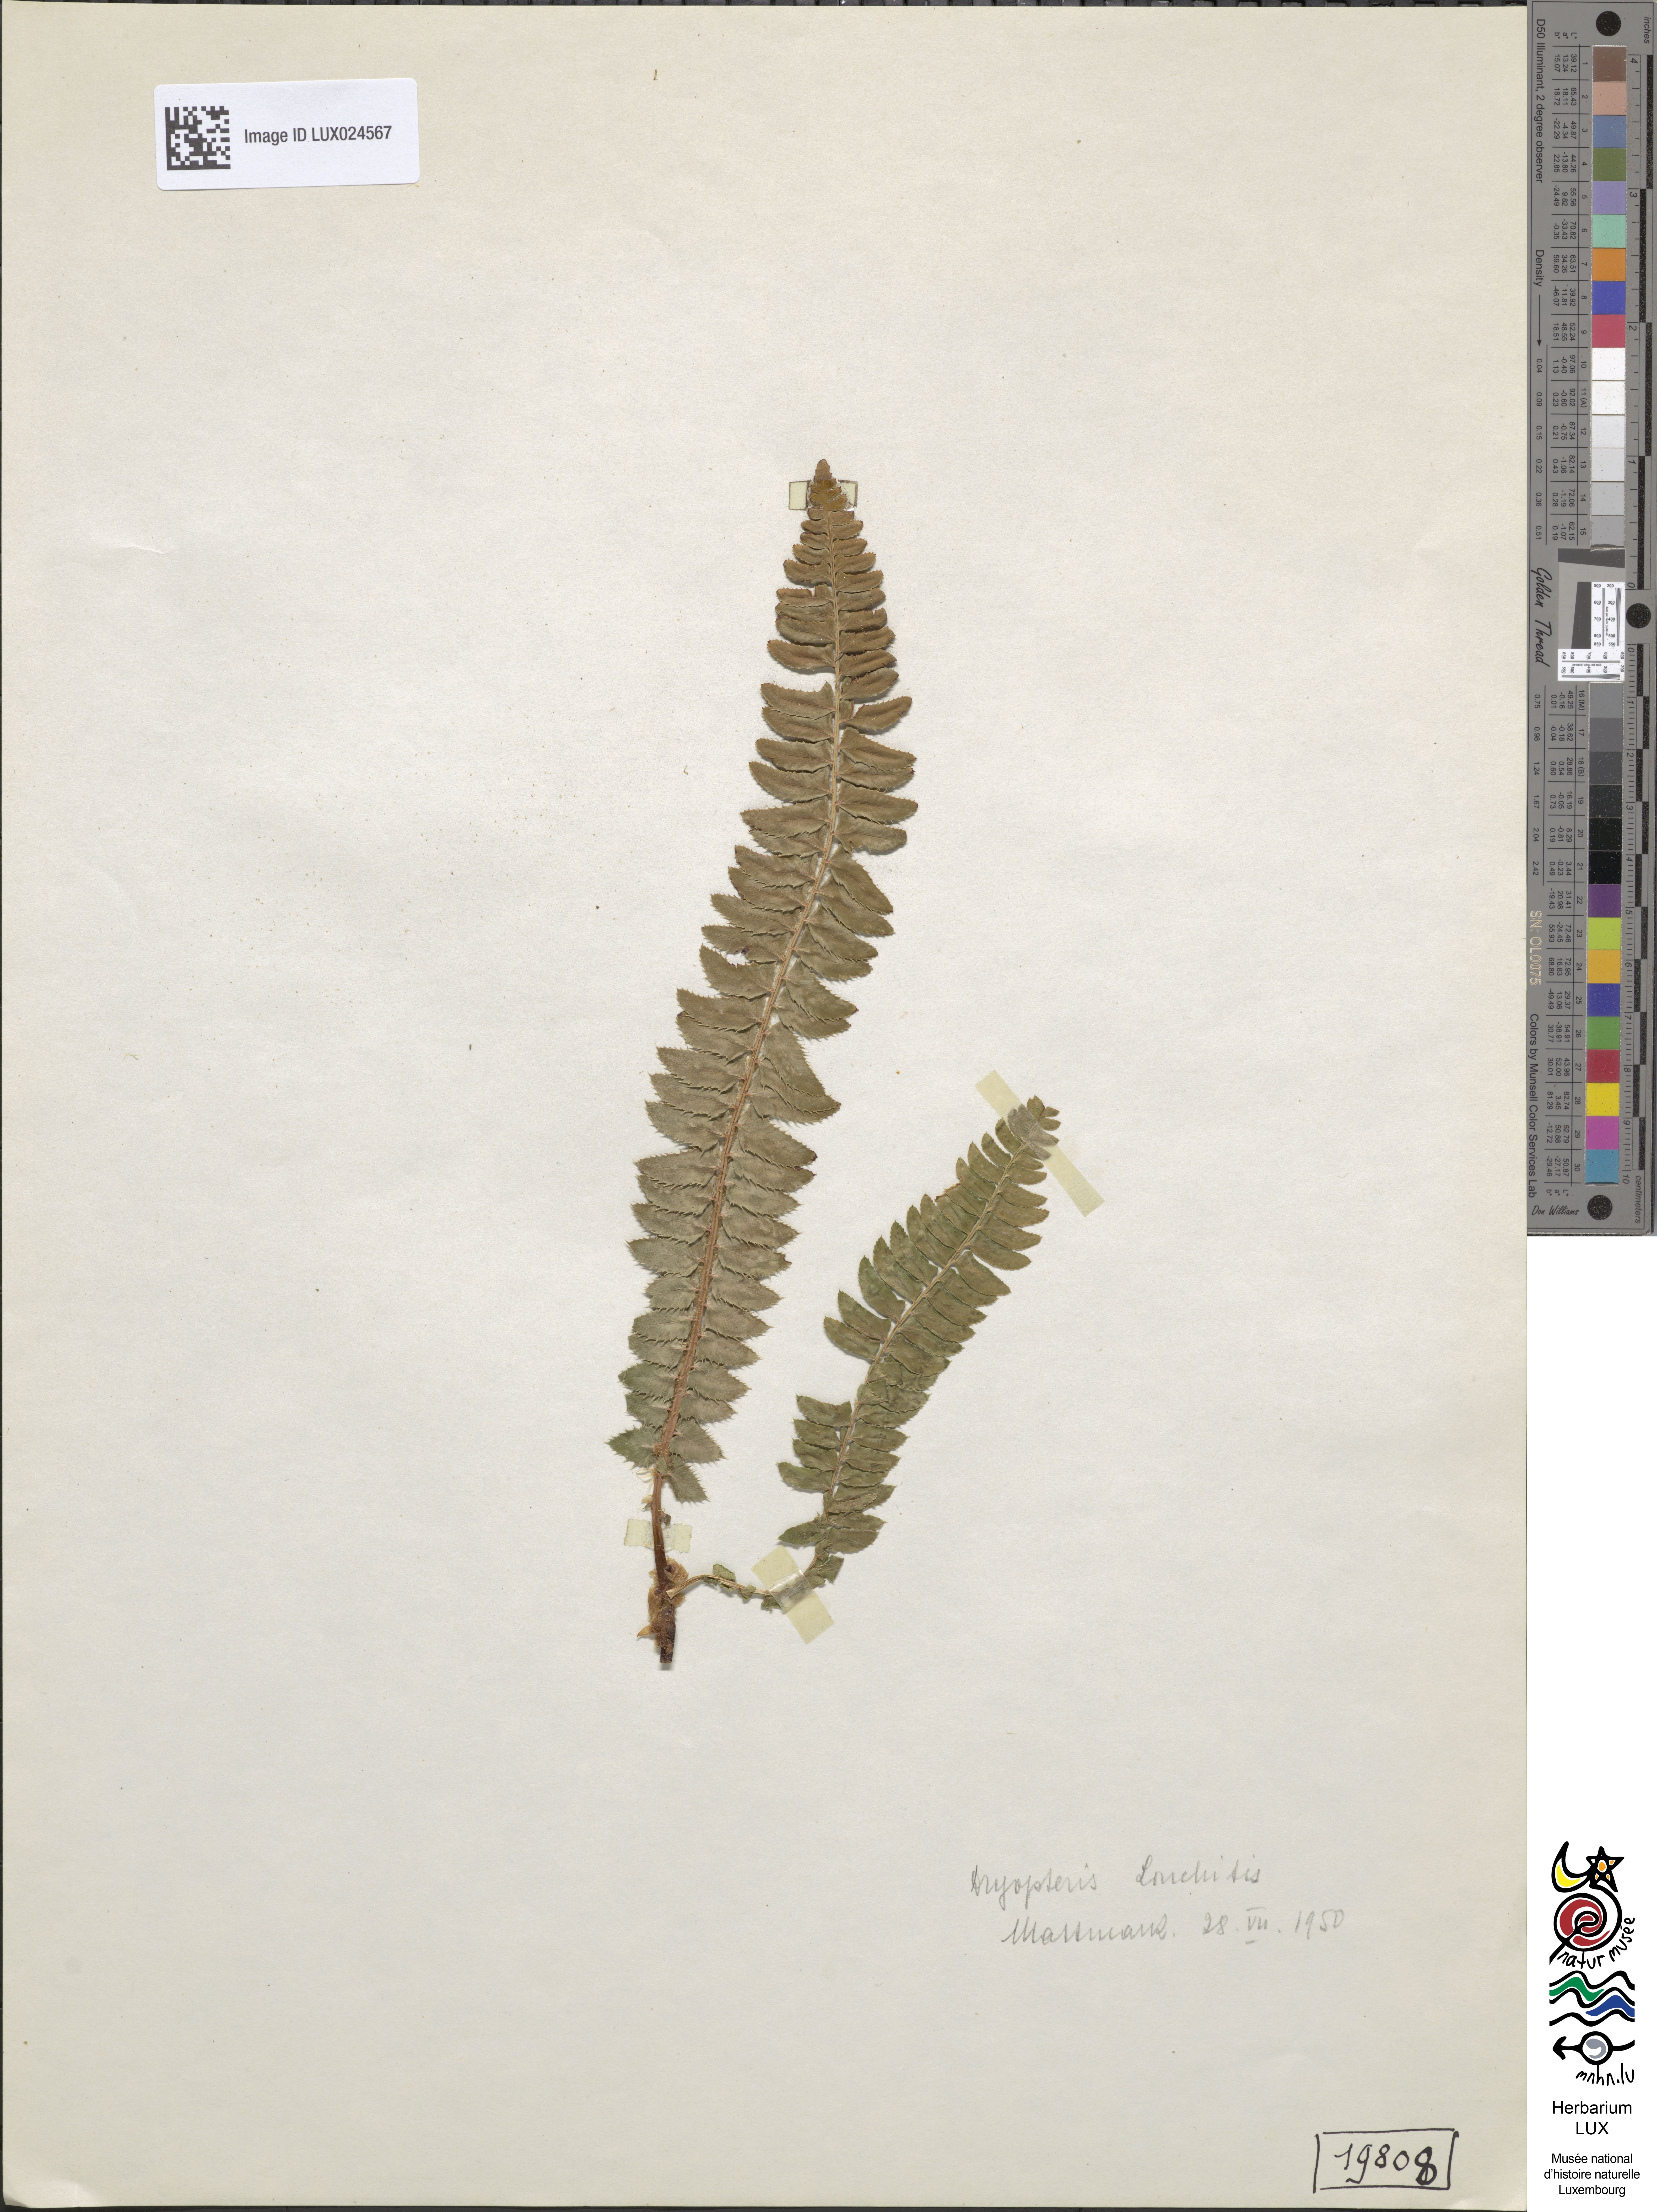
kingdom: Plantae
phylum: Tracheophyta
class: Polypodiopsida
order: Polypodiales
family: Dryopteridaceae
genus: Polystichum
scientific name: Polystichum lonchitis
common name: Holly fern
